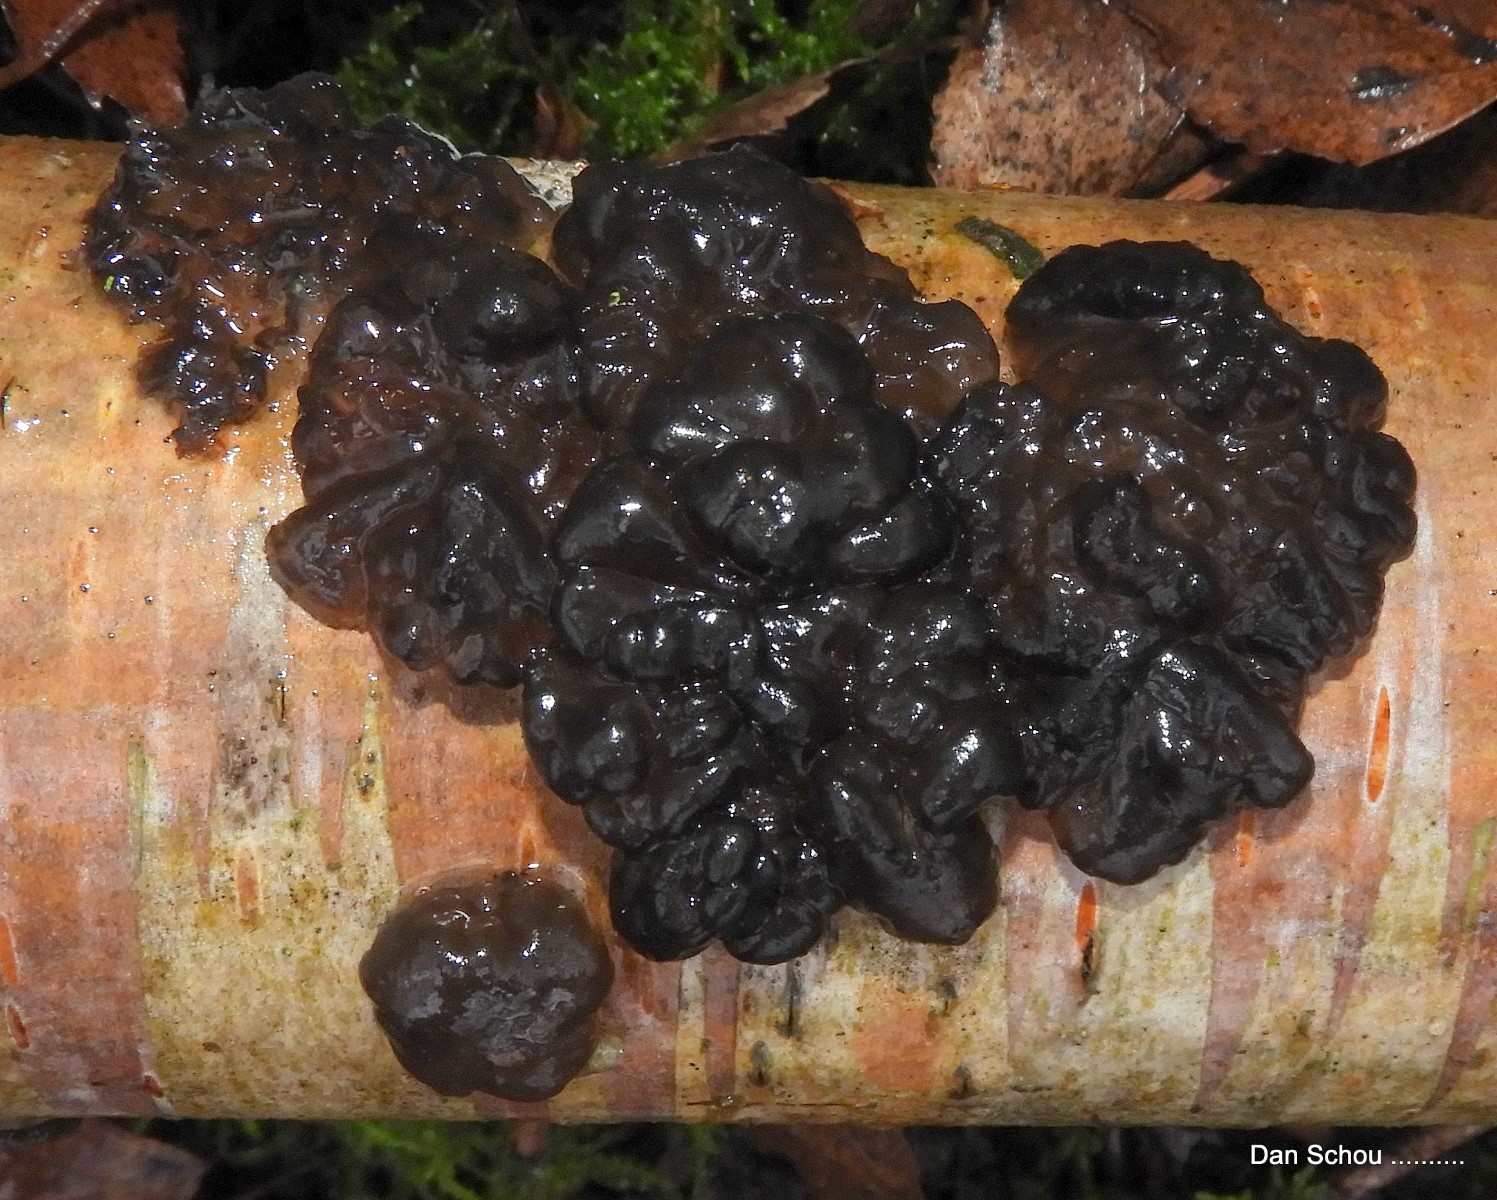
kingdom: Fungi
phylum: Basidiomycota
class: Agaricomycetes
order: Auriculariales
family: Auriculariaceae
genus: Exidia
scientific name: Exidia nigricans
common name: almindelig bævretop
